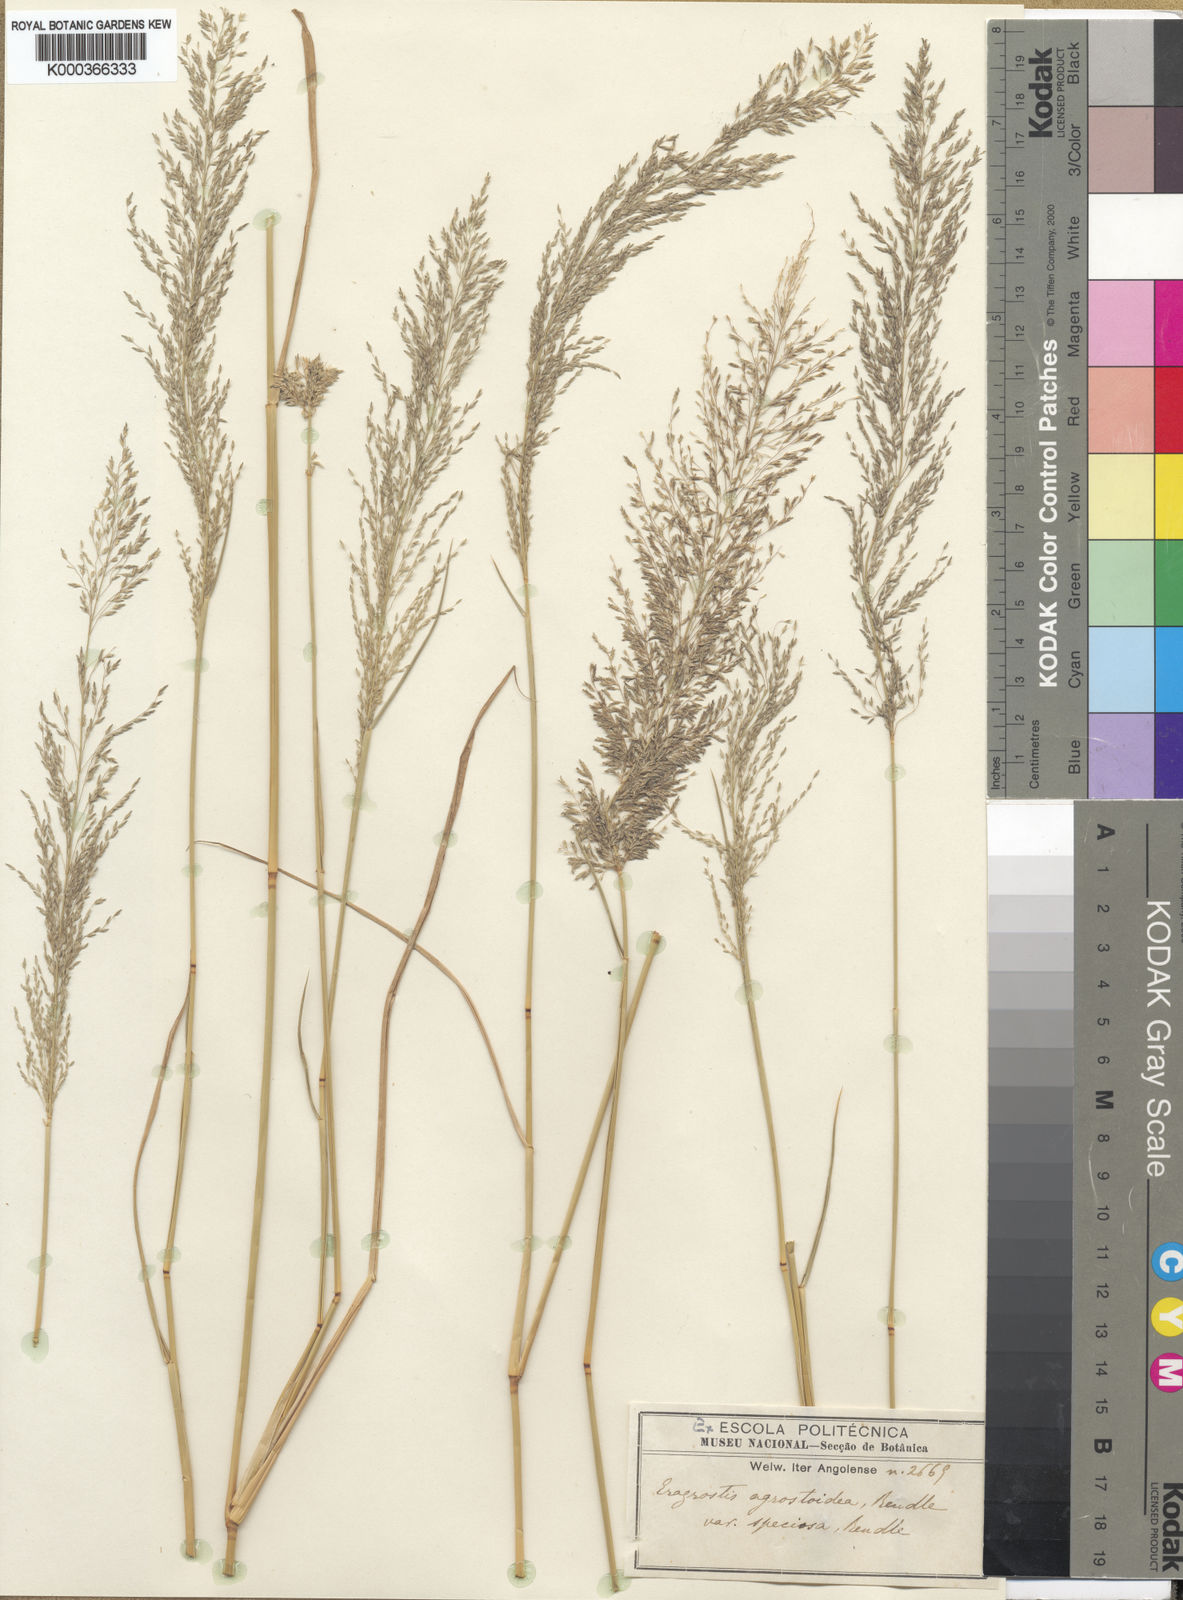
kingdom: Plantae
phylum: Tracheophyta
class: Liliopsida
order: Poales
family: Poaceae
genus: Eragrostis
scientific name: Eragrostis cylindriflora
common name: Cylinderflower lovegrass
